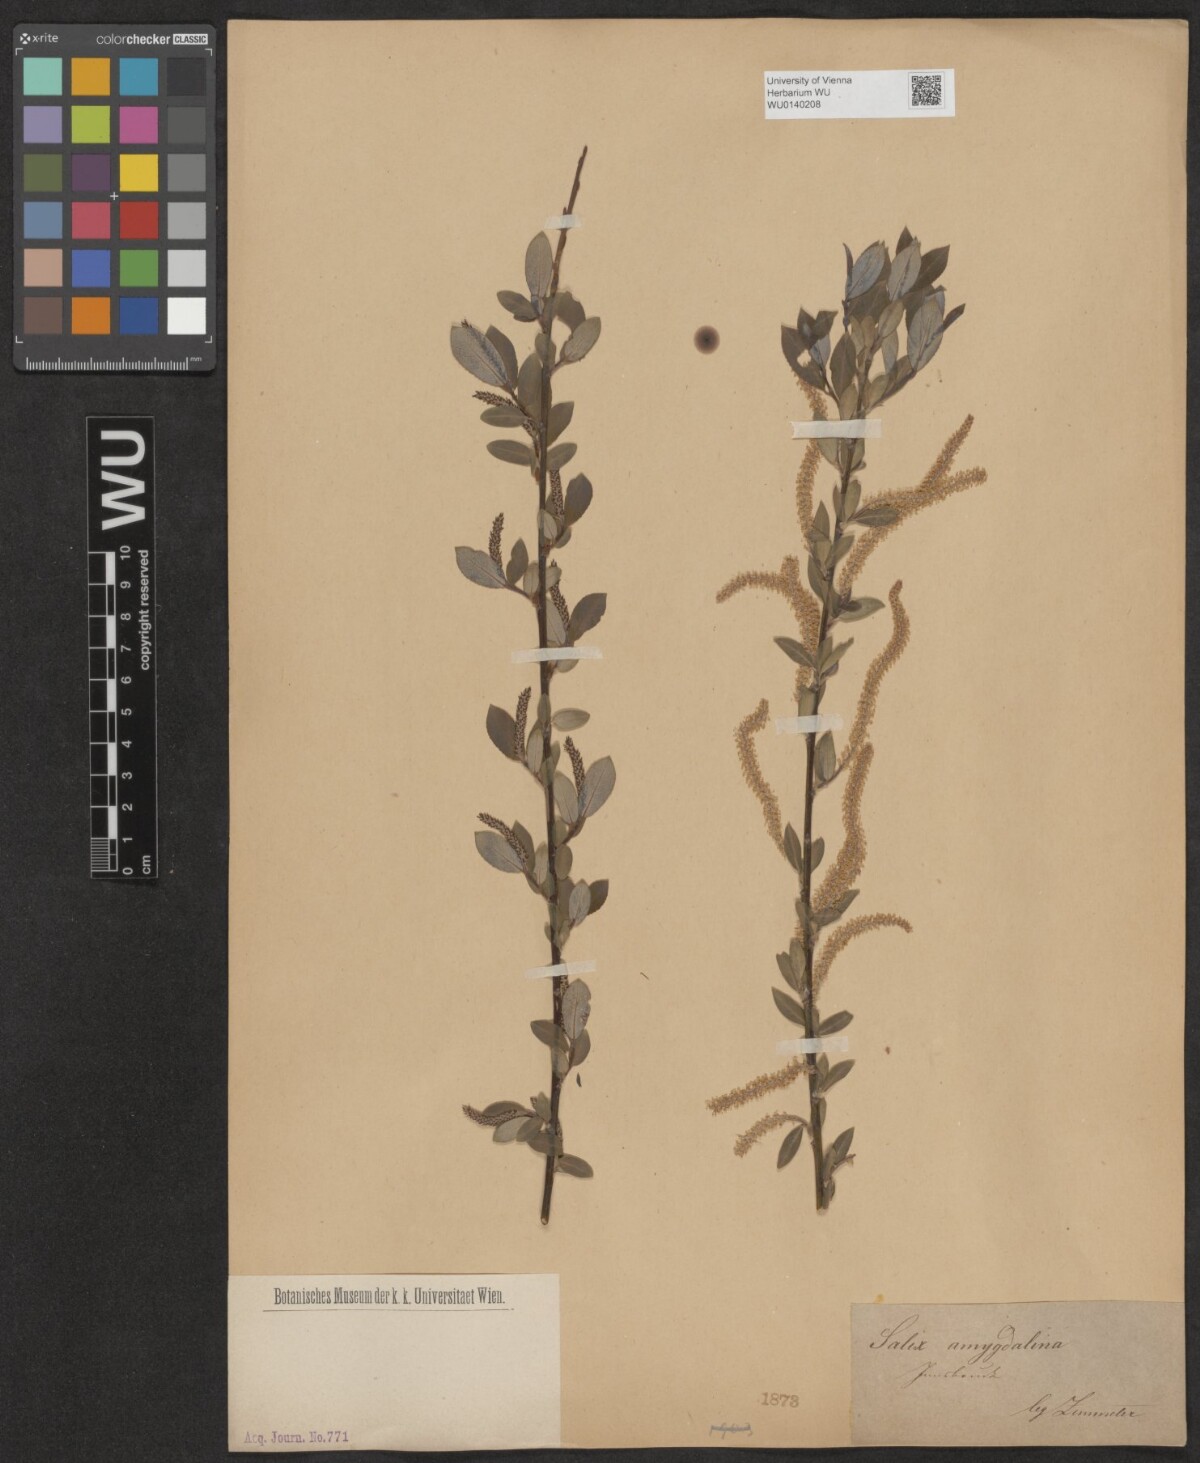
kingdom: Plantae
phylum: Tracheophyta
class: Magnoliopsida
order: Malpighiales
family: Salicaceae
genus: Salix
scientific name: Salix triandra
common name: Almond willow
